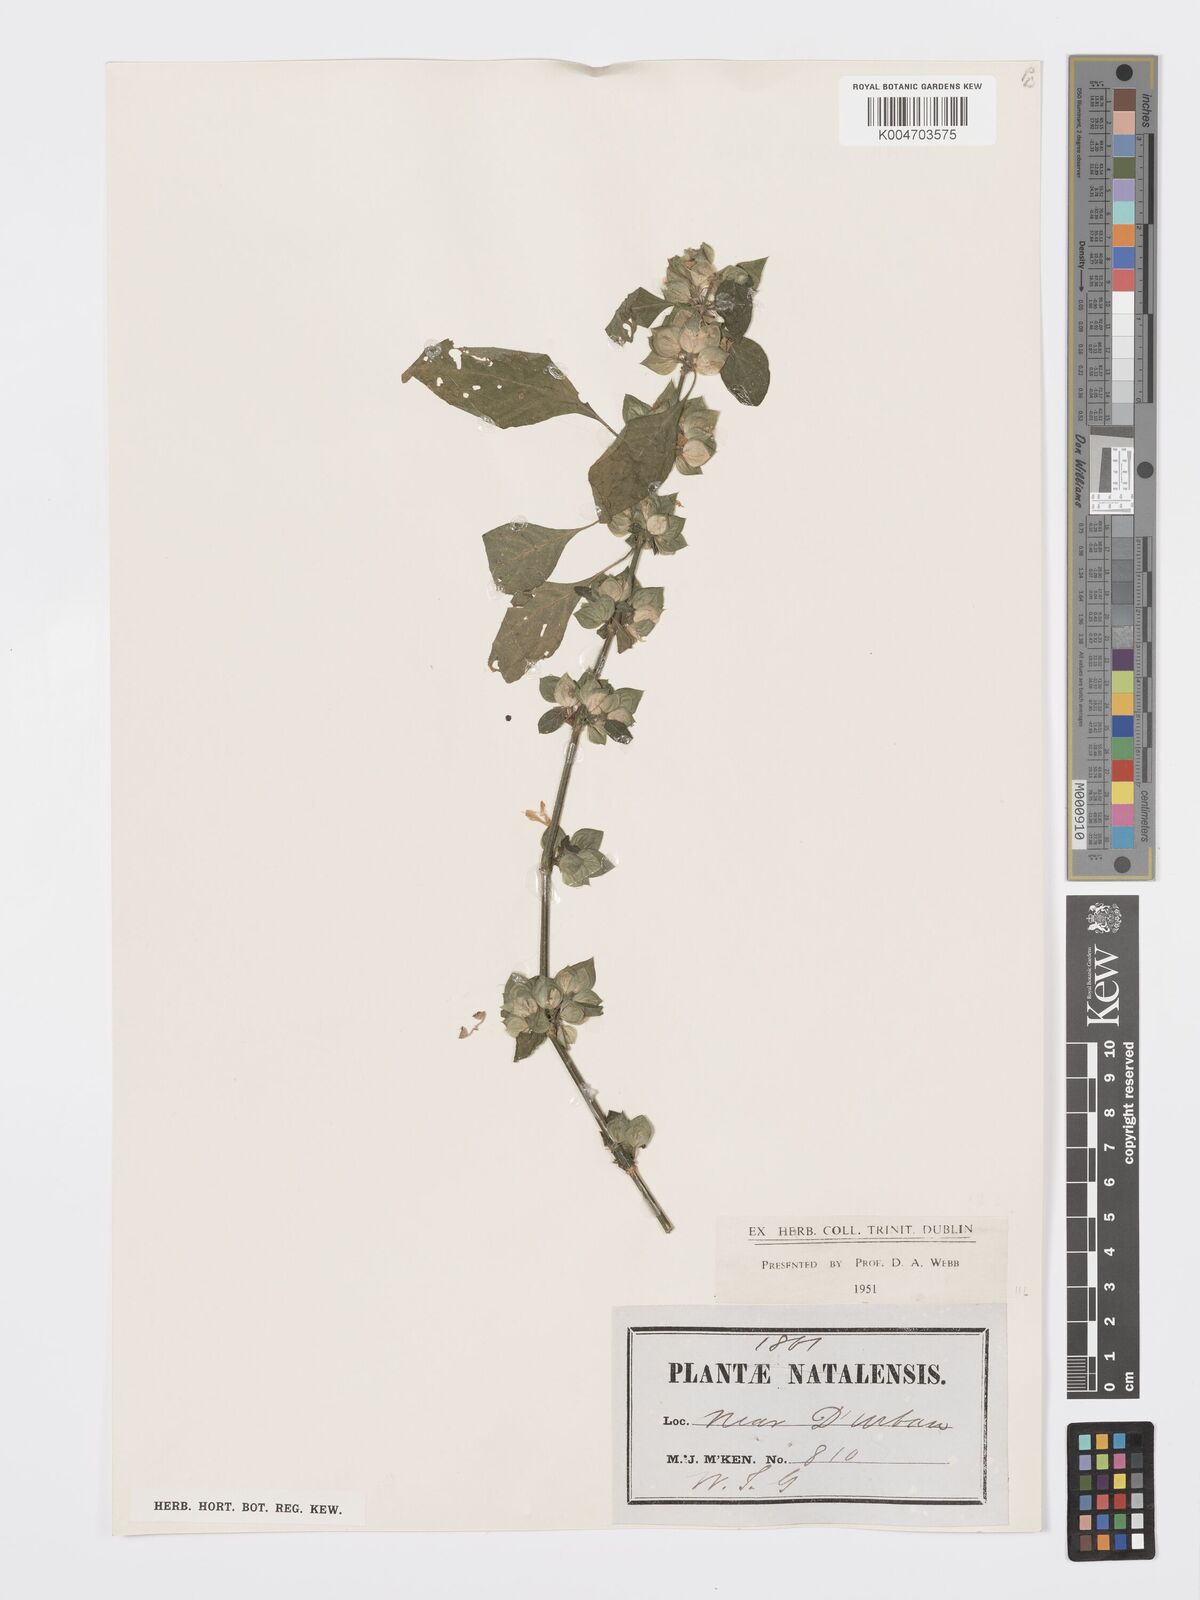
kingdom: Plantae
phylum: Tracheophyta
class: Magnoliopsida
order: Lamiales
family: Acanthaceae
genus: Dicliptera
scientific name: Dicliptera heterostegia
